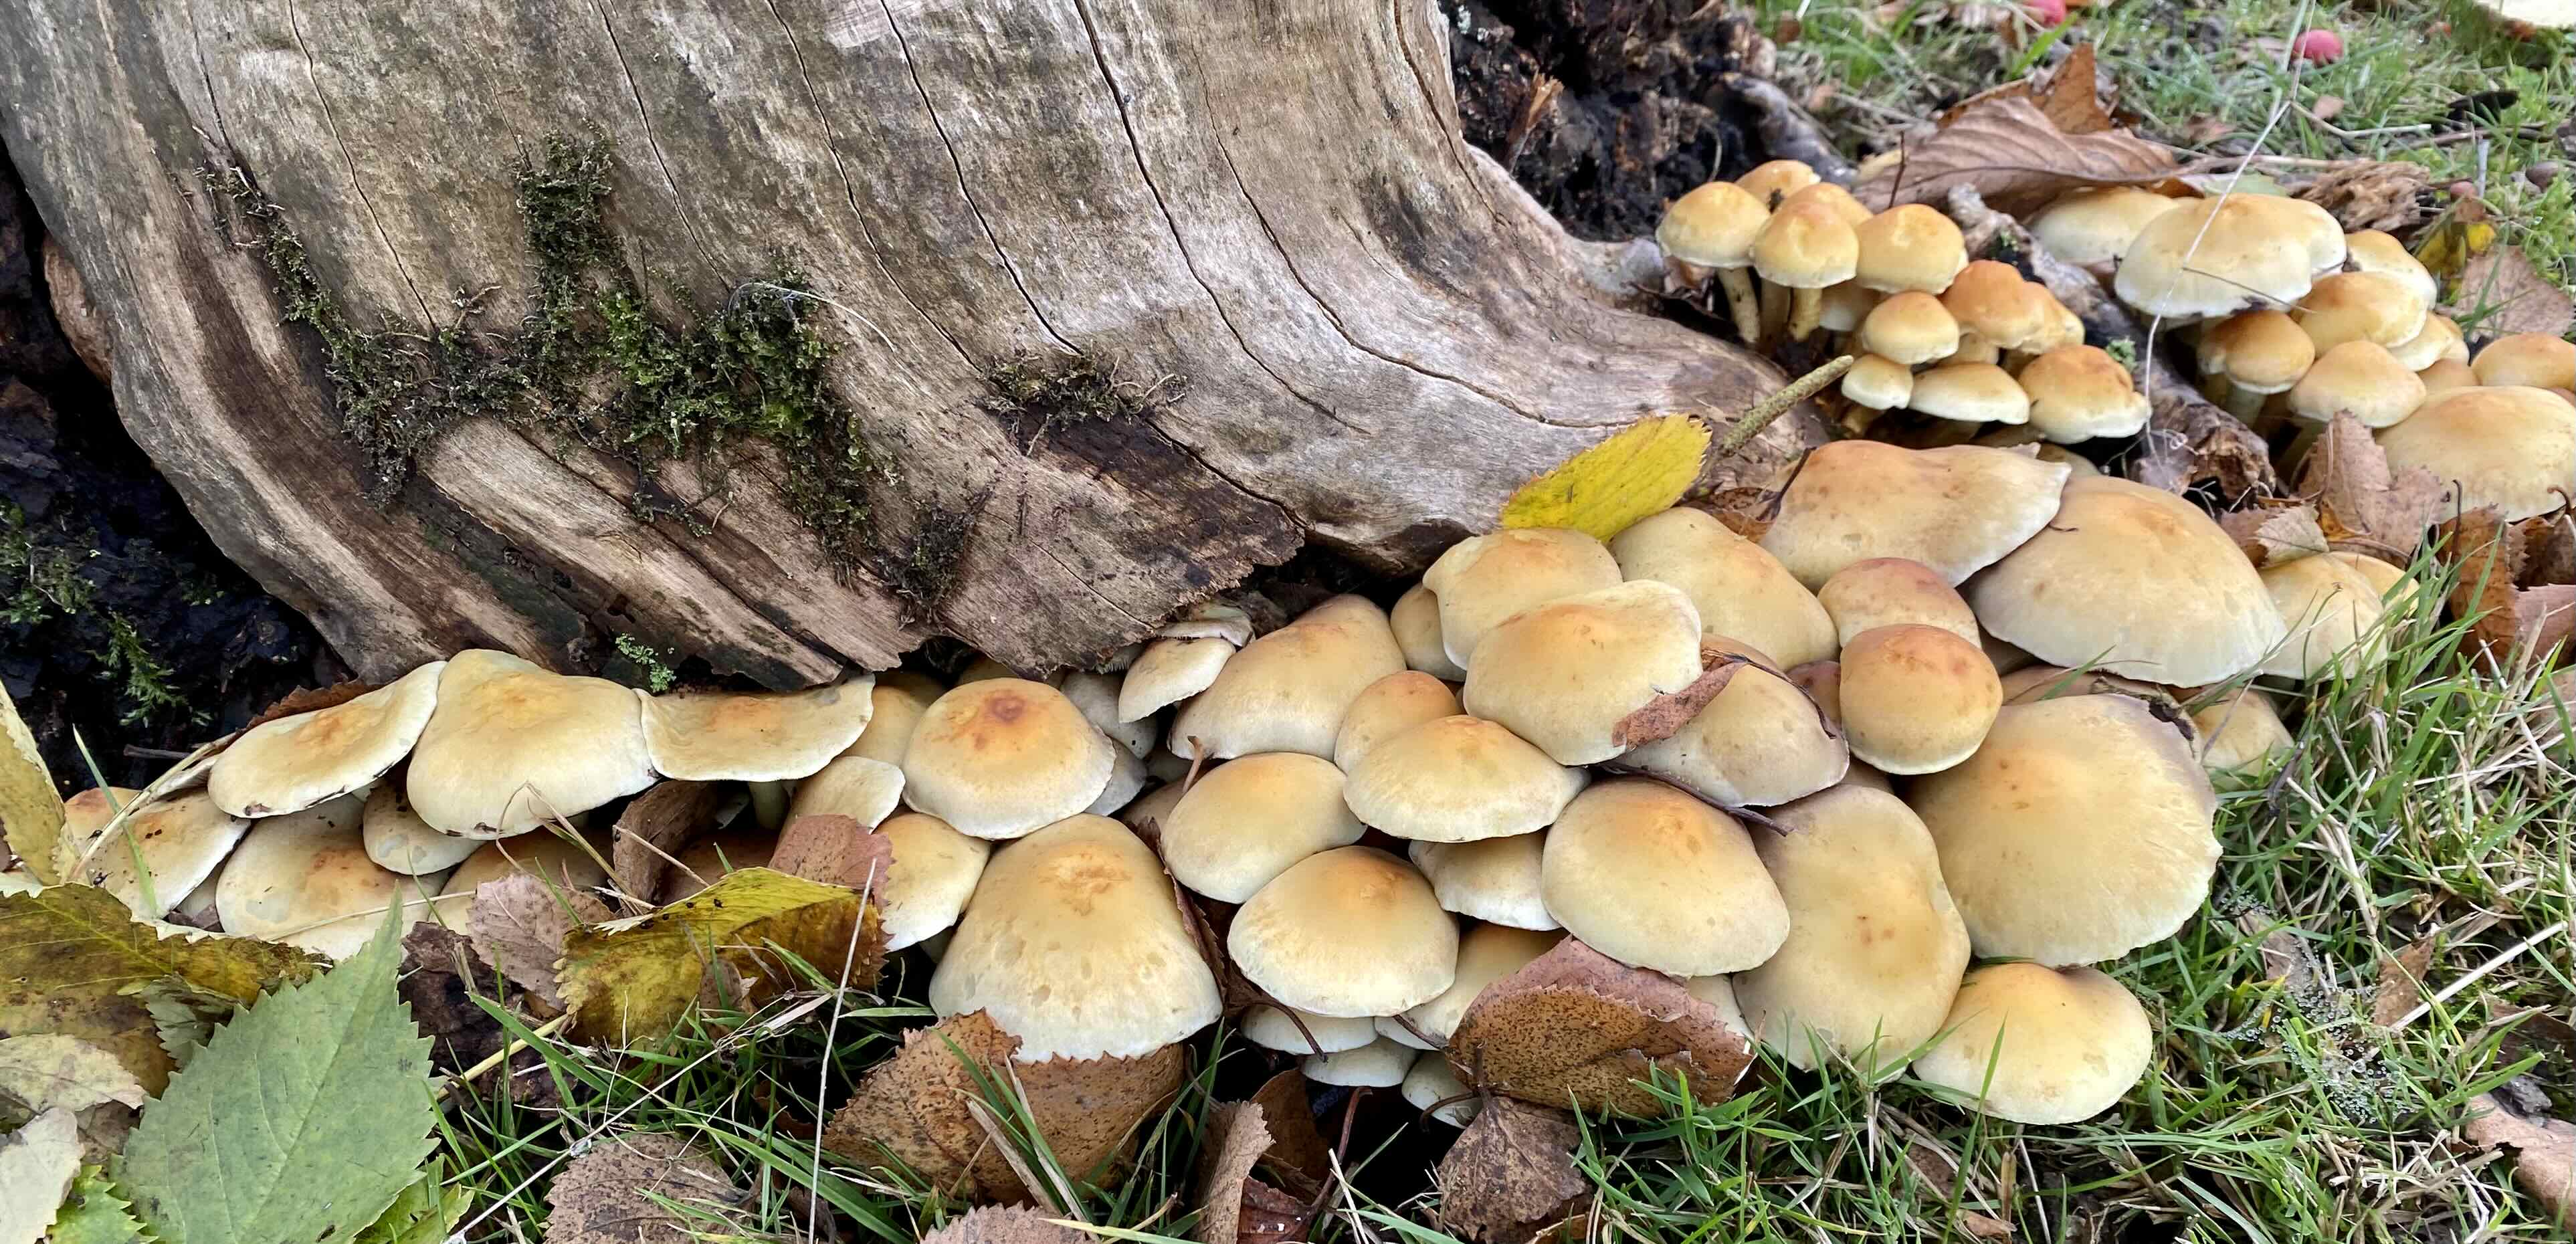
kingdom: Fungi
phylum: Basidiomycota
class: Agaricomycetes
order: Agaricales
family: Strophariaceae
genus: Hypholoma
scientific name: Hypholoma fasciculare
